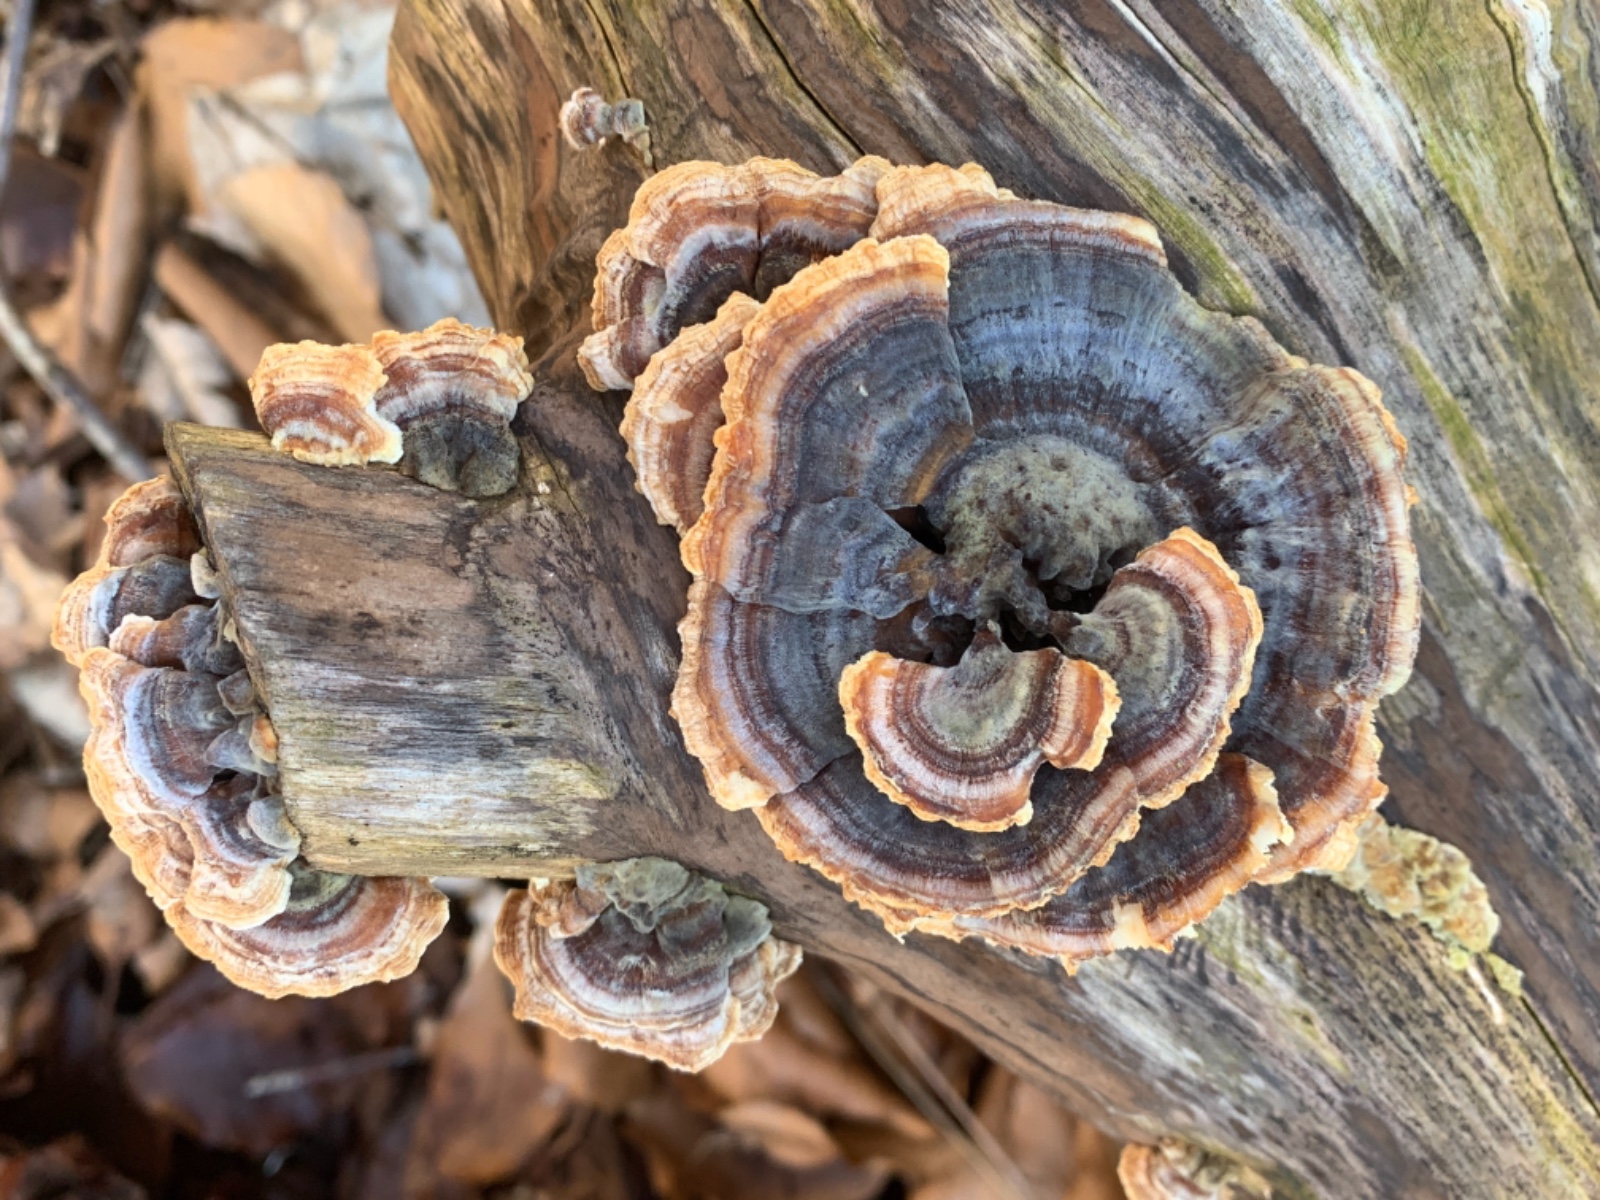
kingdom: Fungi
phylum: Basidiomycota
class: Agaricomycetes
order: Polyporales
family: Polyporaceae
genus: Trametes
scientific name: Trametes versicolor
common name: broget læderporesvamp
